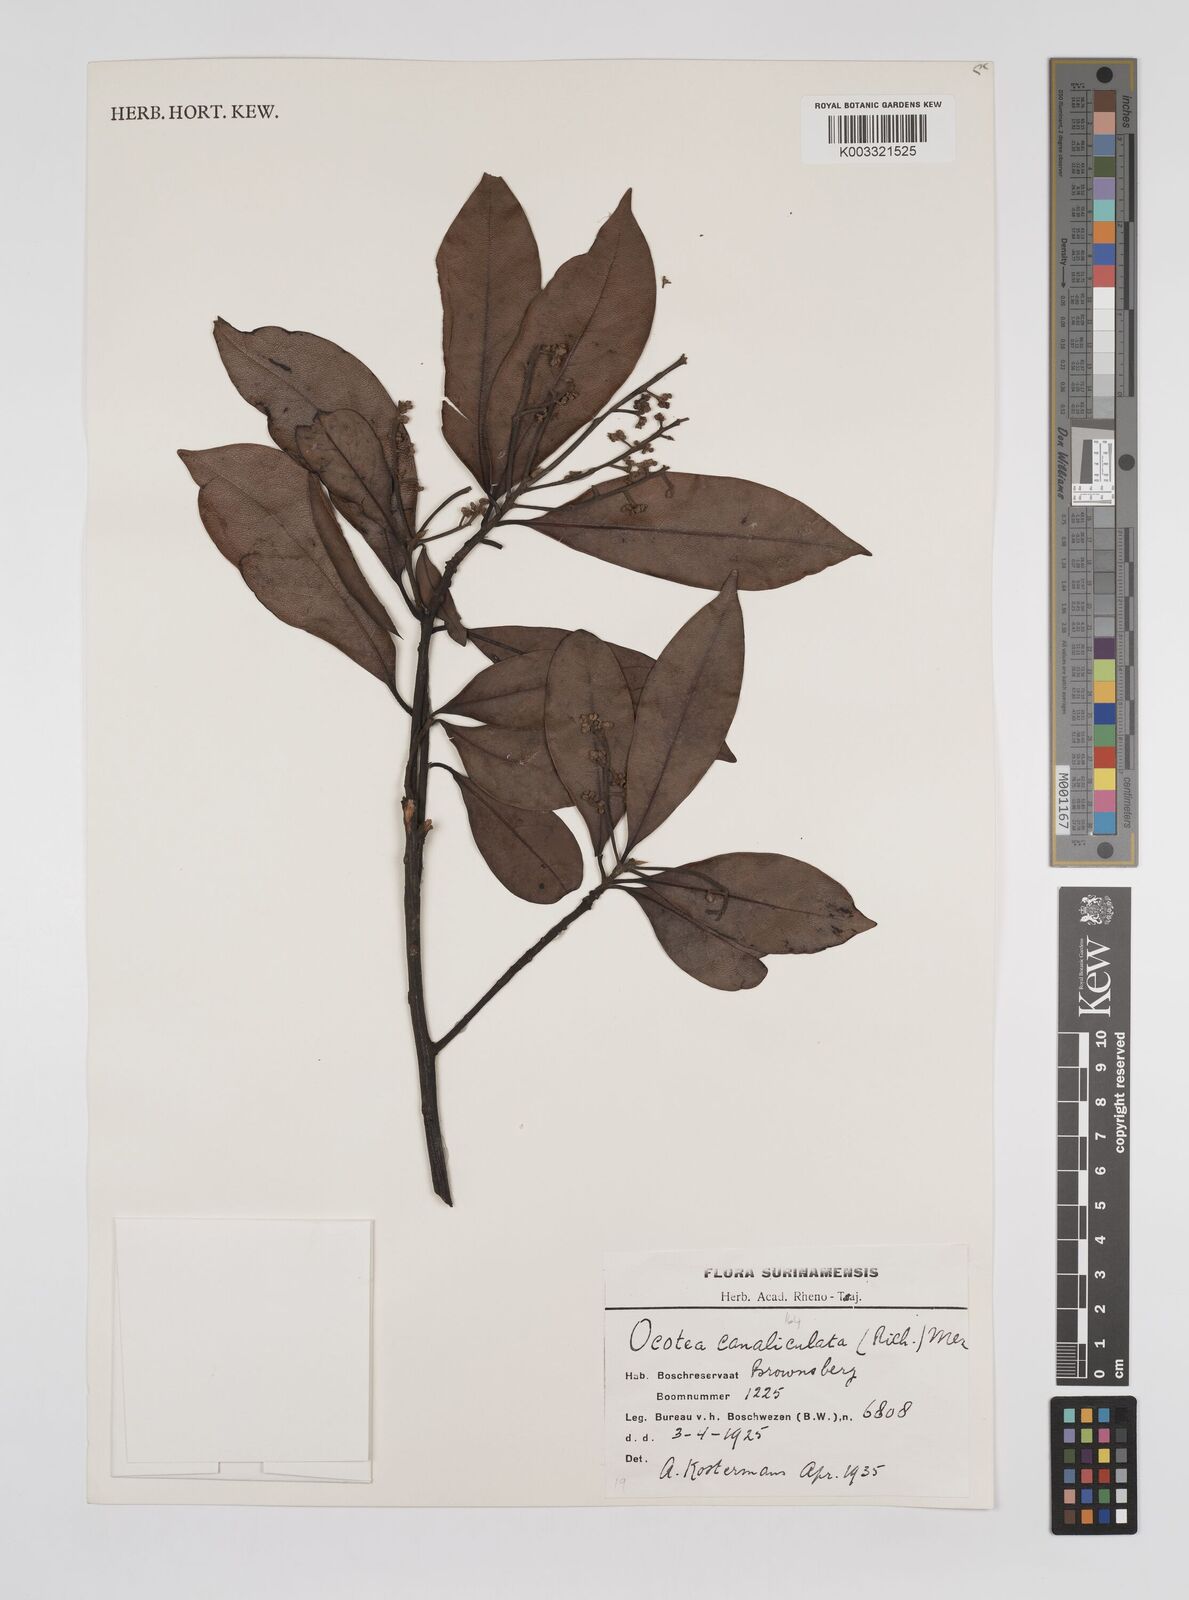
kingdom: Plantae
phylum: Tracheophyta
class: Magnoliopsida
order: Laurales
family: Lauraceae
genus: Ocotea
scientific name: Ocotea canaliculata
